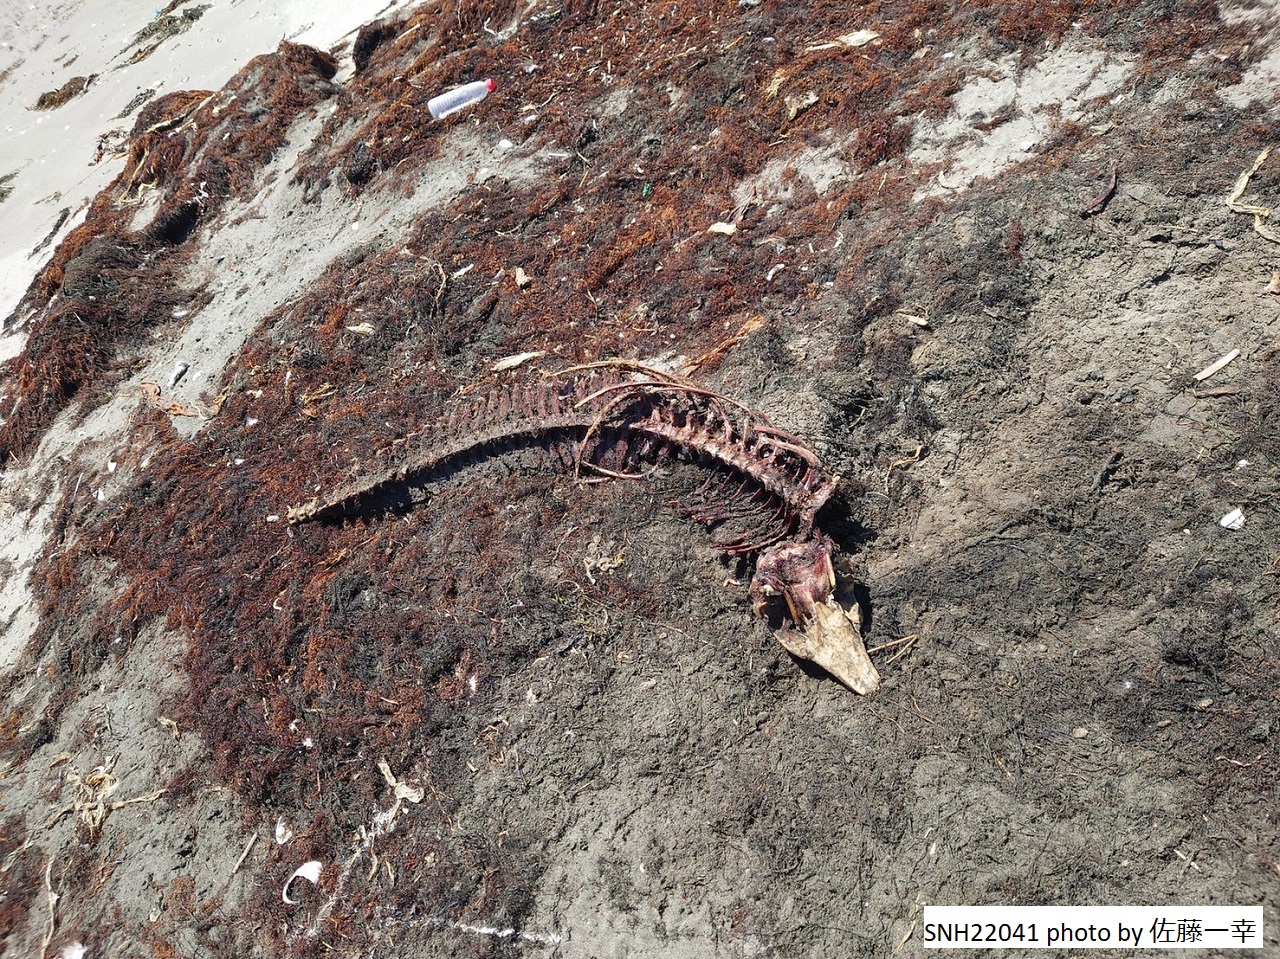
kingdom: Animalia
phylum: Chordata
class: Mammalia
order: Cetacea
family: Phocoenidae
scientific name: Phocoenidae
